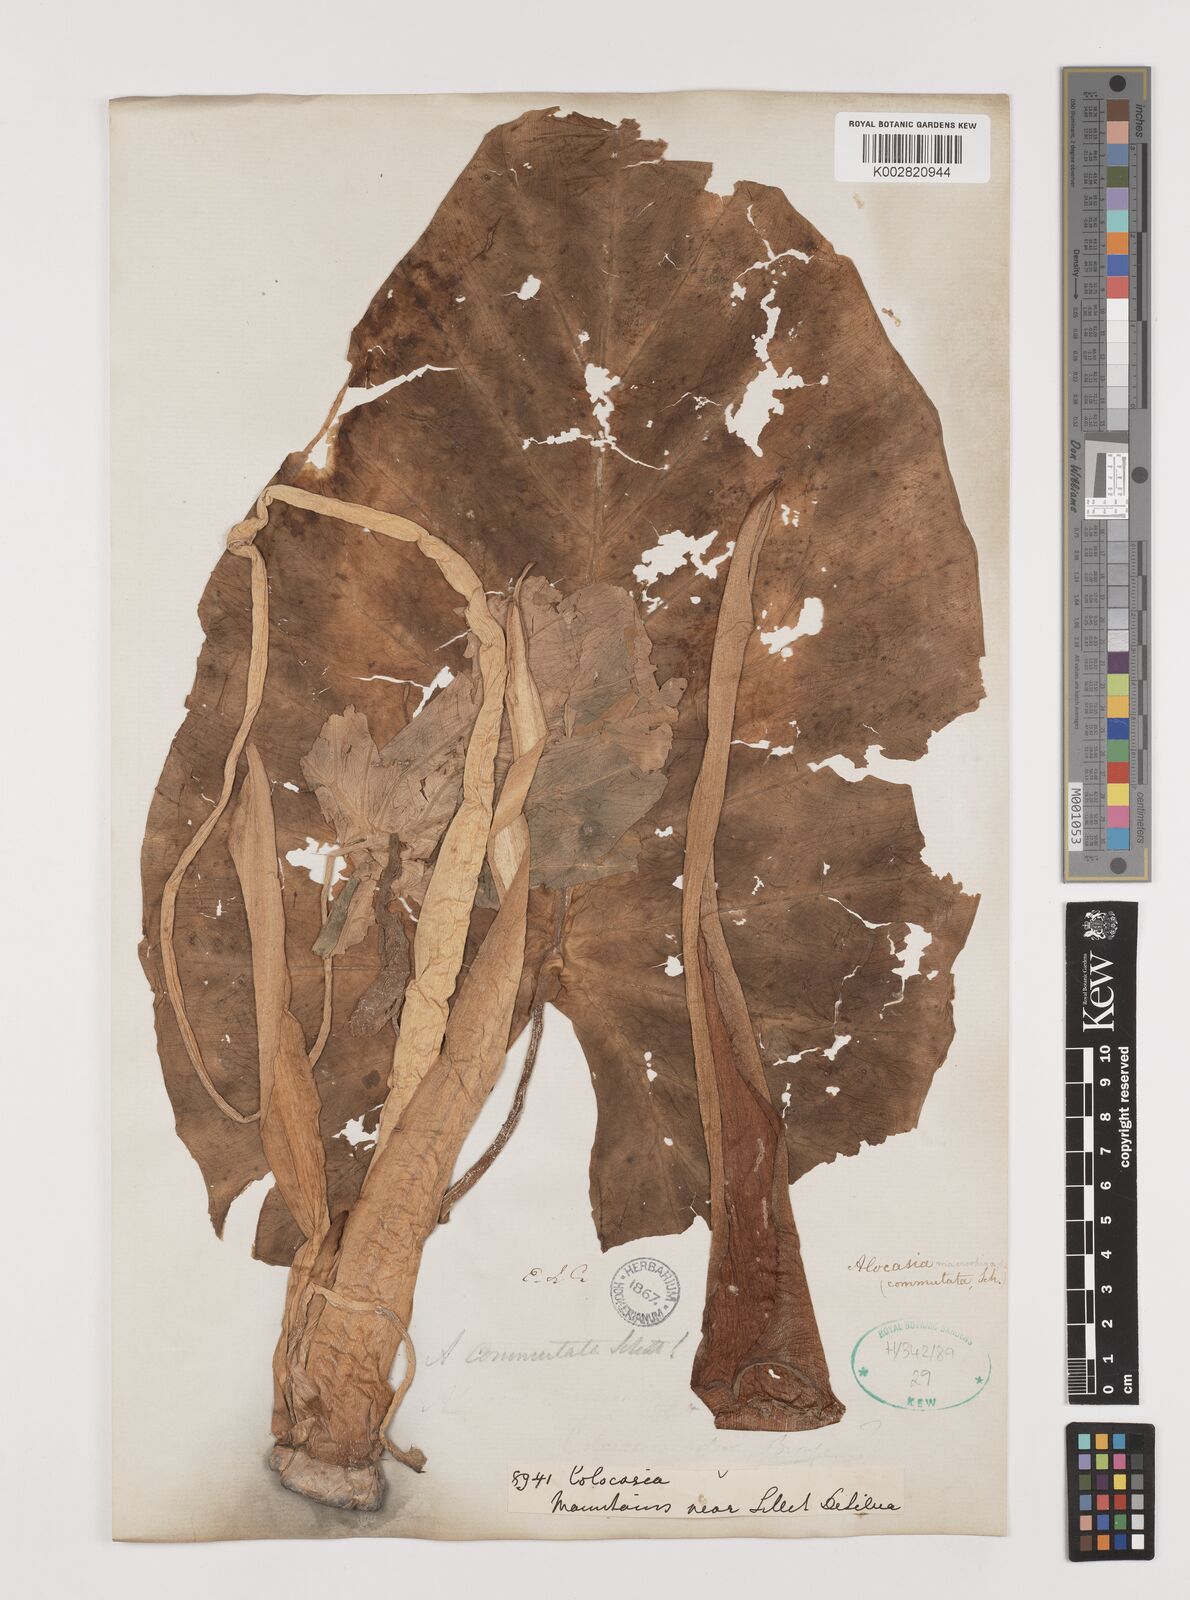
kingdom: Plantae
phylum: Tracheophyta
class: Liliopsida
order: Alismatales
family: Araceae
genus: Alocasia
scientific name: Alocasia macrorrhizos
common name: Giant taro
